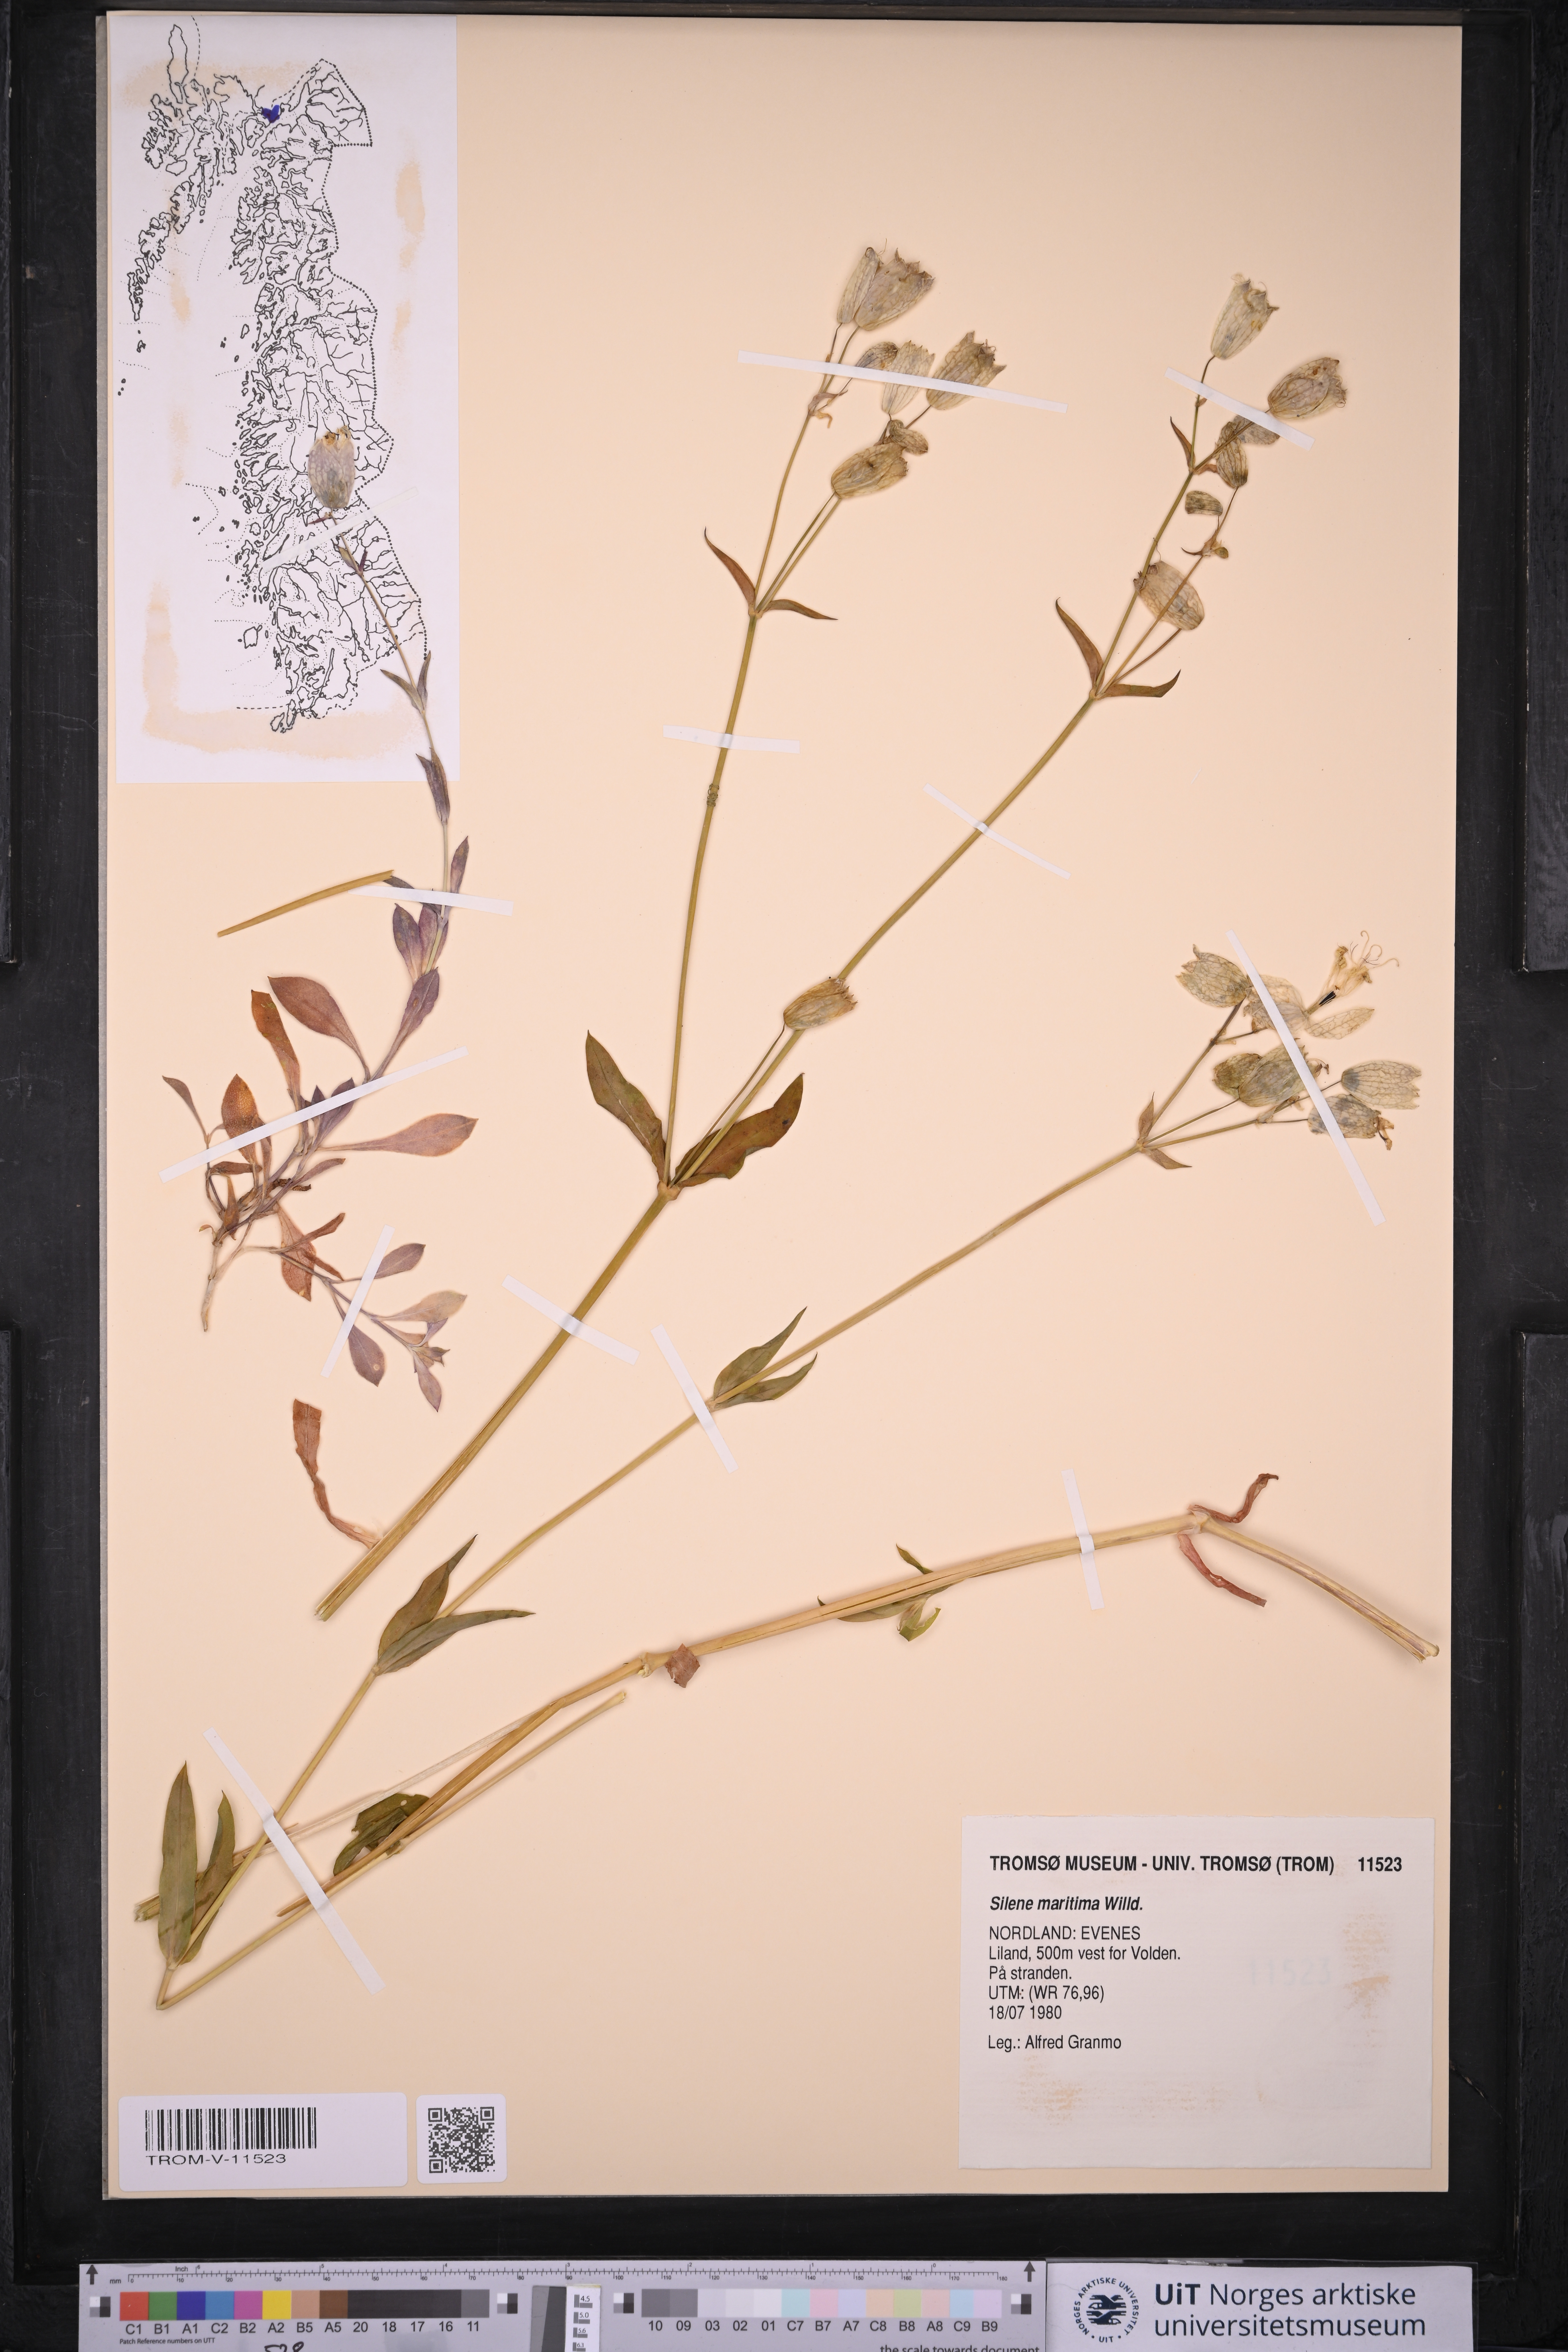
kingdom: Plantae
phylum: Tracheophyta
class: Magnoliopsida
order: Caryophyllales
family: Caryophyllaceae
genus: Silene
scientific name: Silene uniflora
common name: Sea campion
